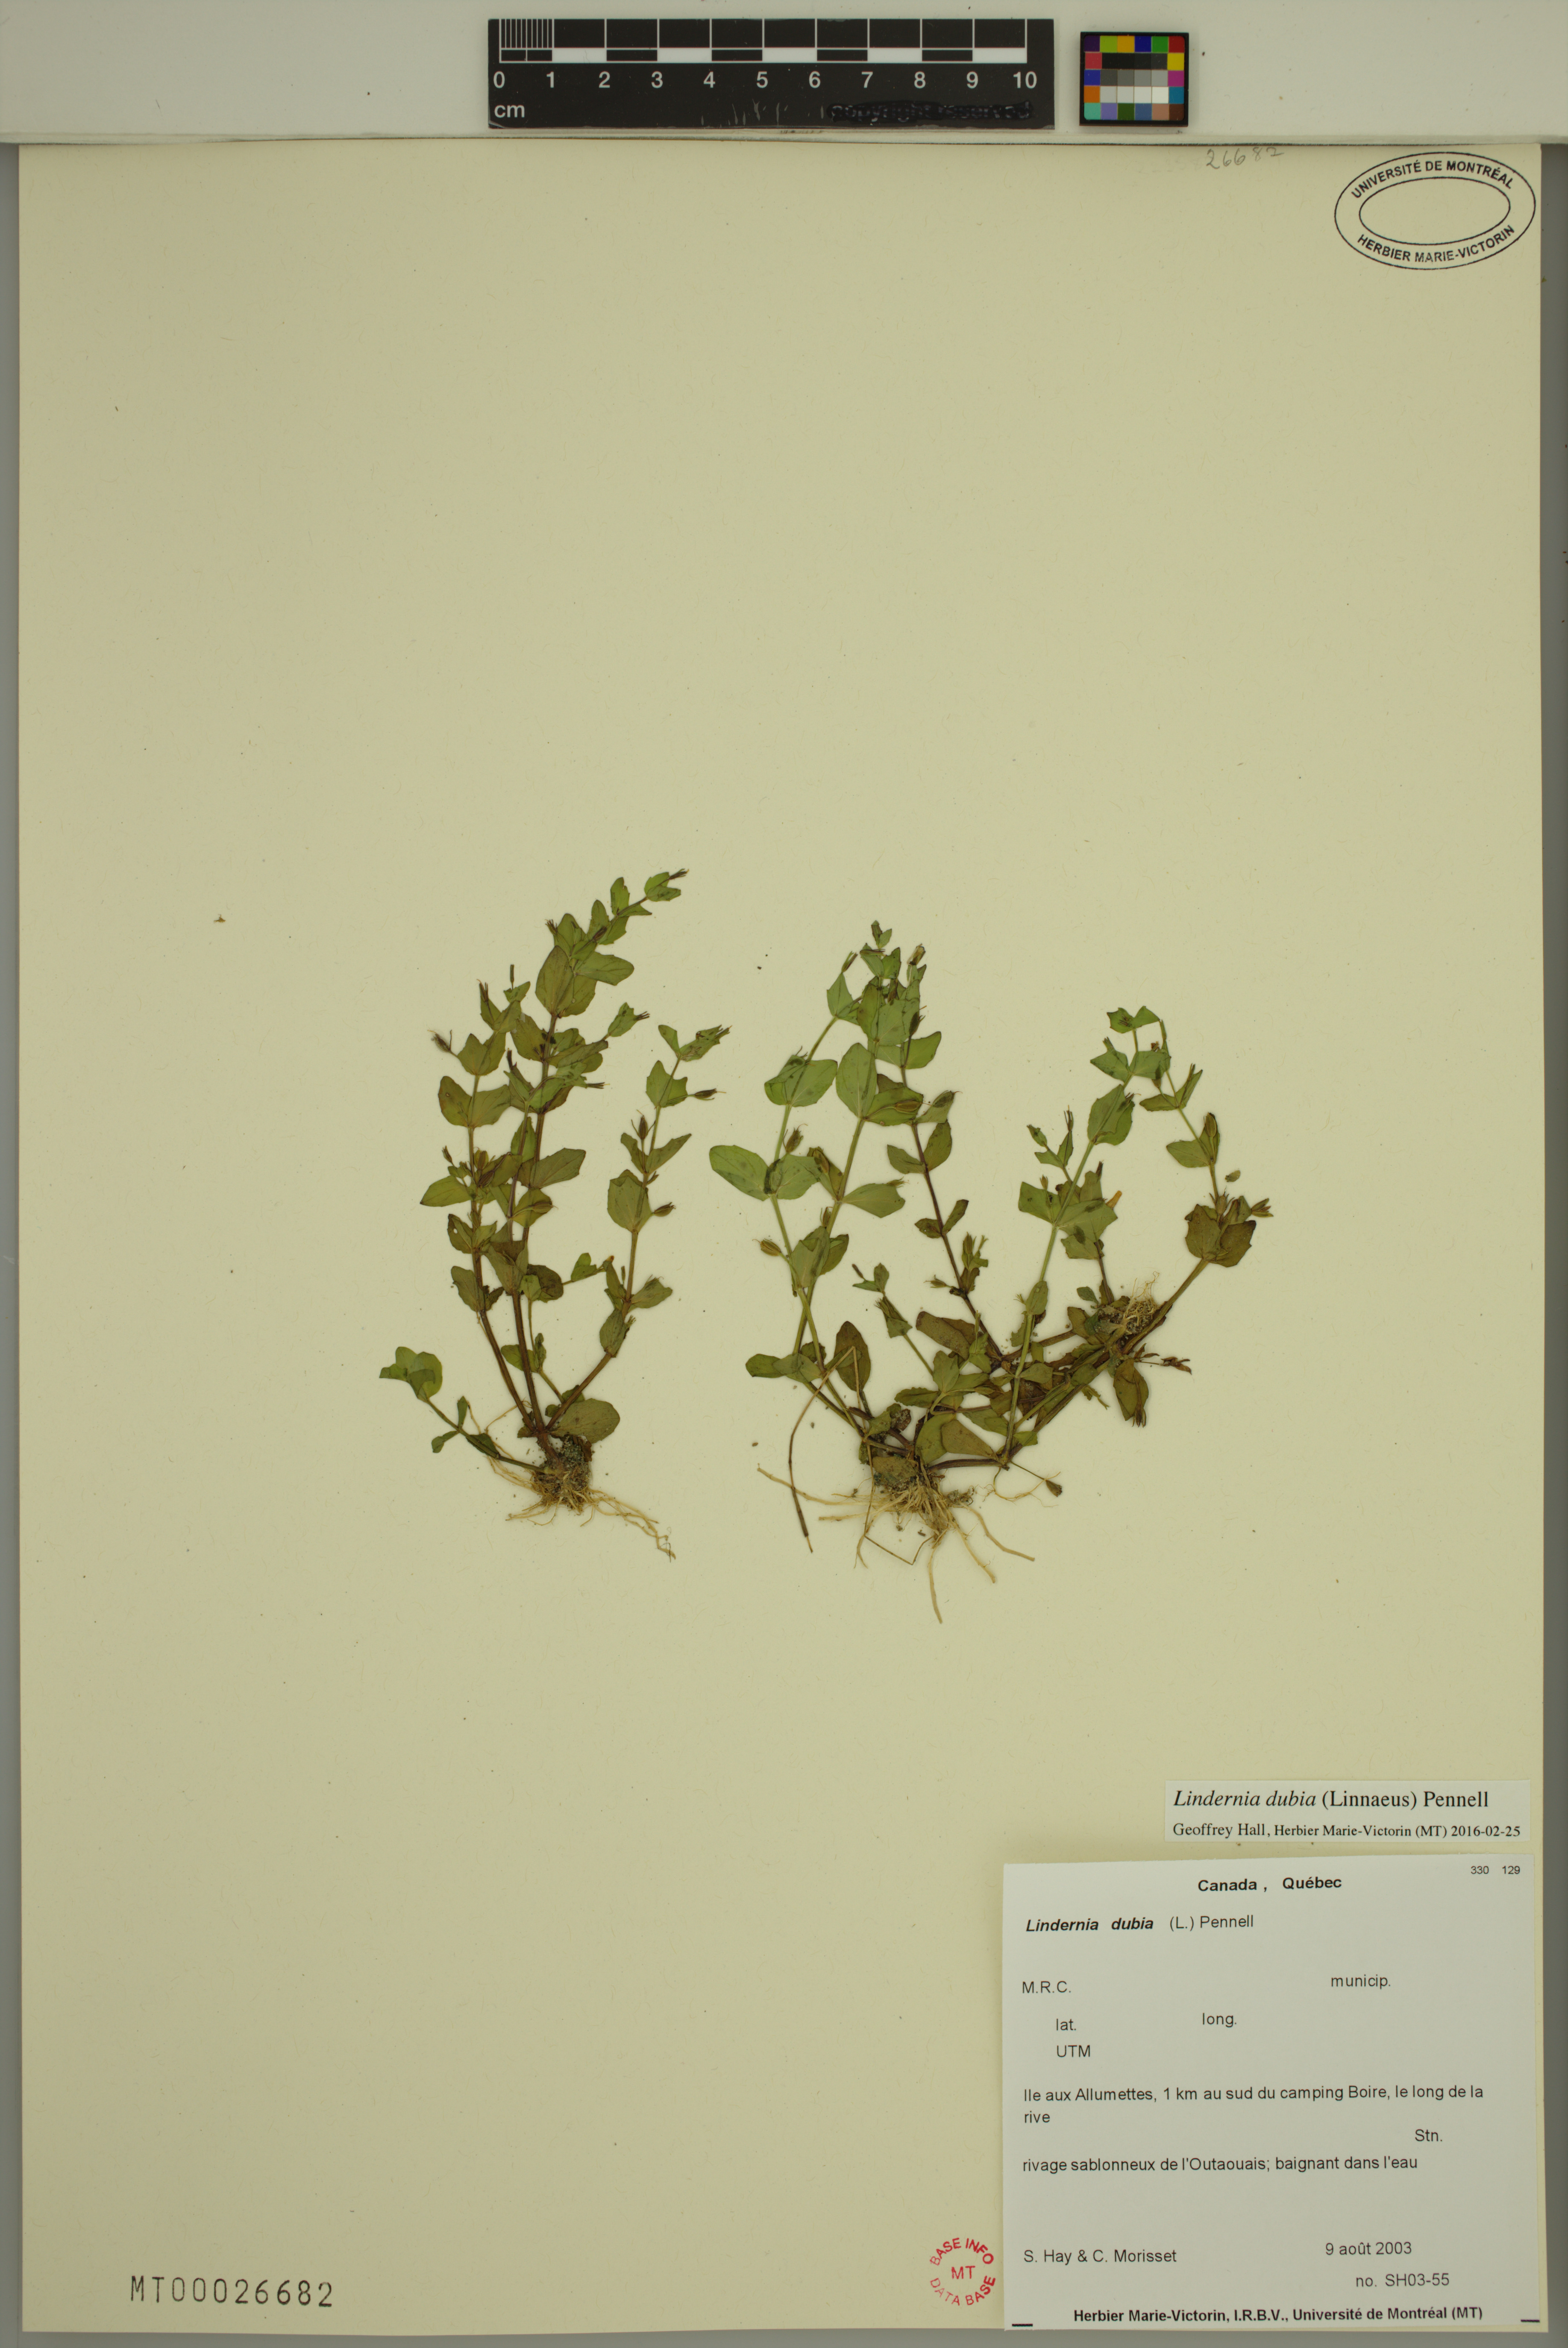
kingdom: Plantae
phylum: Tracheophyta
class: Magnoliopsida
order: Lamiales
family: Linderniaceae
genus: Lindernia
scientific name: Lindernia dubia
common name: Annual false pimpernel
